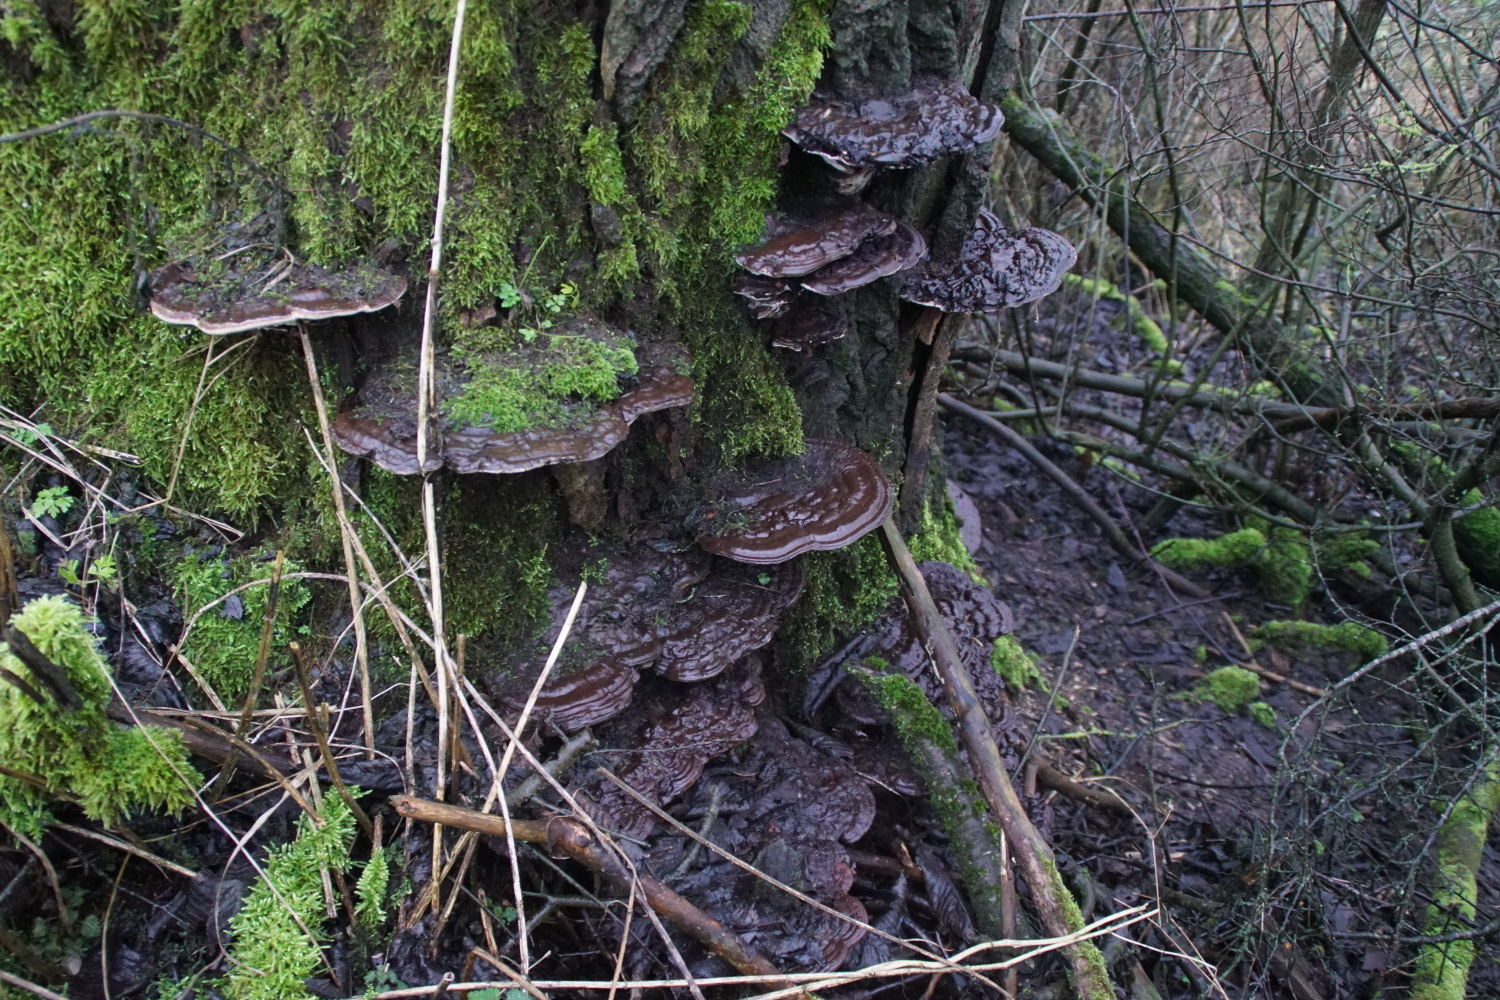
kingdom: Fungi
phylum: Basidiomycota
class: Agaricomycetes
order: Polyporales
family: Polyporaceae
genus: Ganoderma
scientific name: Ganoderma applanatum
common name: flad lakporesvamp
